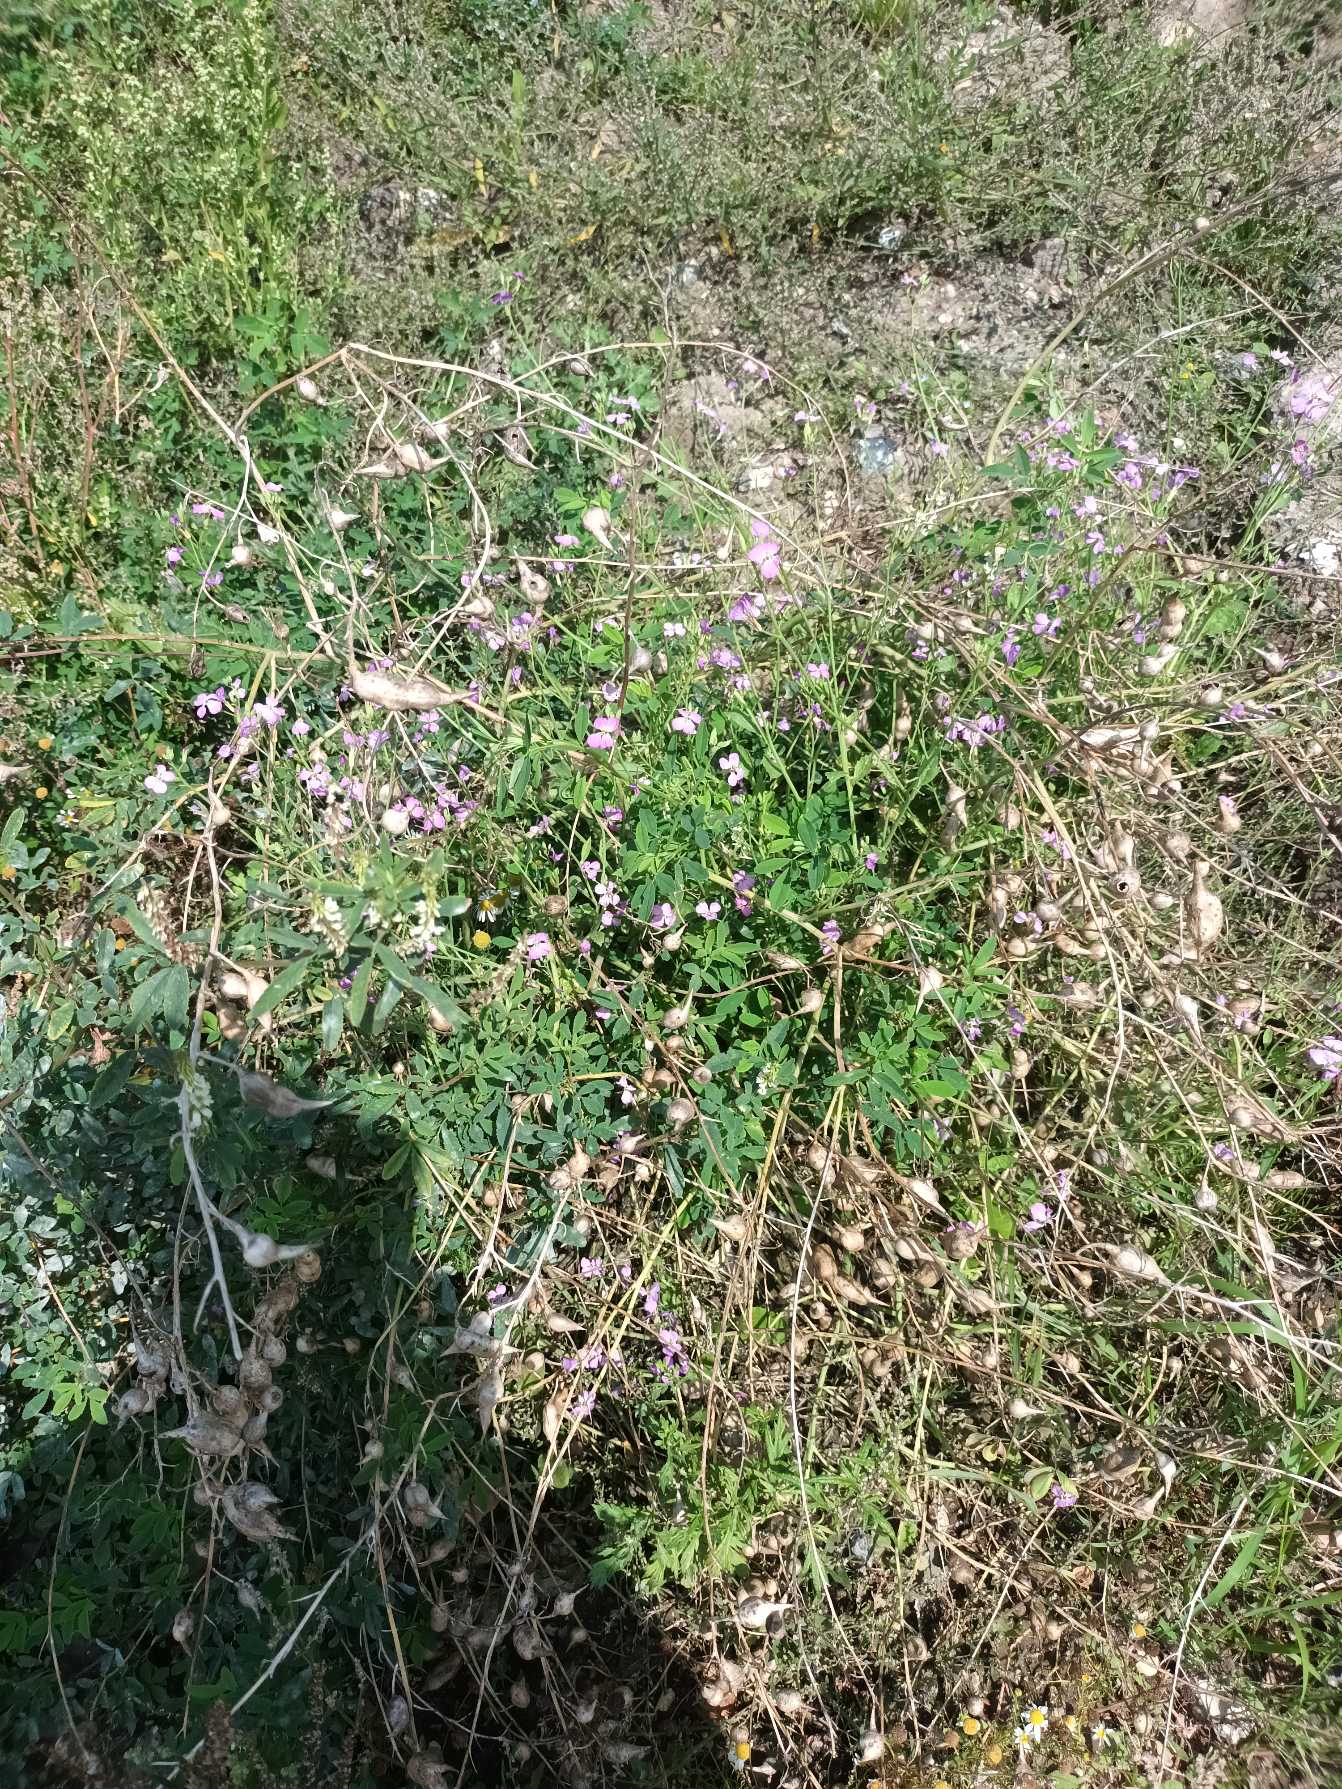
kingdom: Plantae
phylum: Tracheophyta
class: Magnoliopsida
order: Brassicales
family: Brassicaceae
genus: Raphanus
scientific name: Raphanus sativus
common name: Olie-ræddike
